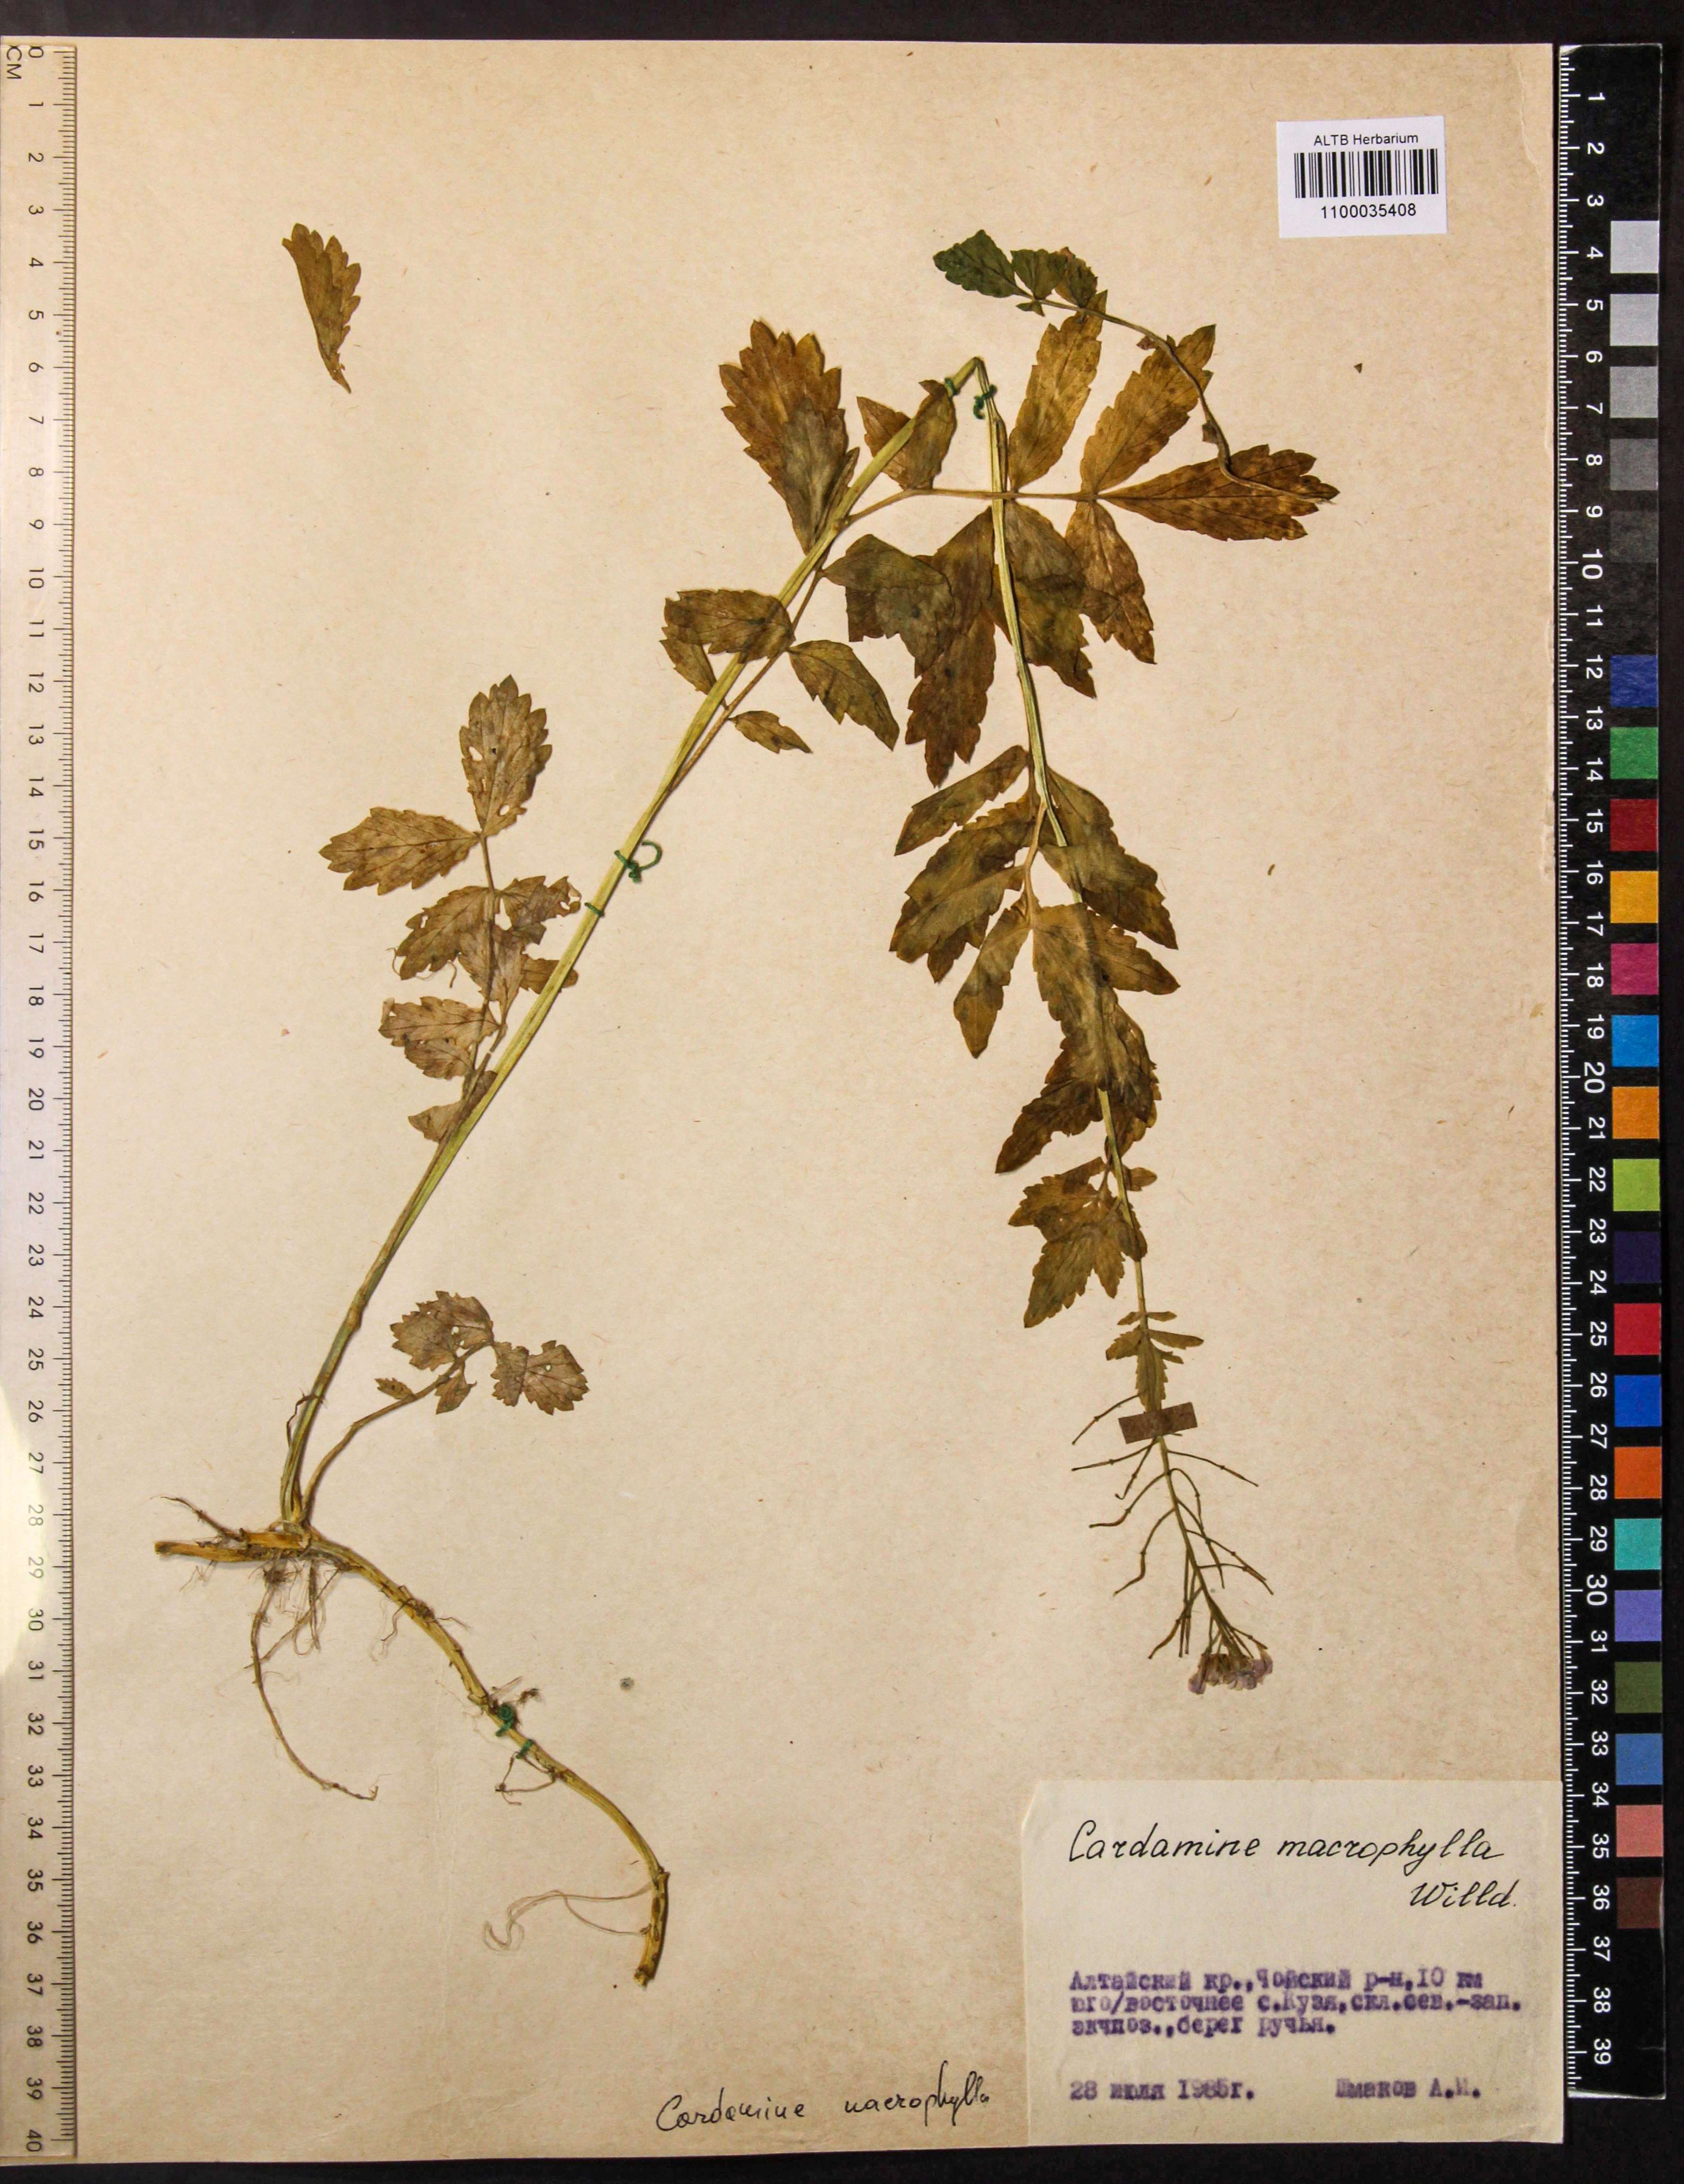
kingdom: Plantae
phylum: Tracheophyta
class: Magnoliopsida
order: Brassicales
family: Brassicaceae
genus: Cardamine
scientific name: Cardamine macrophylla
